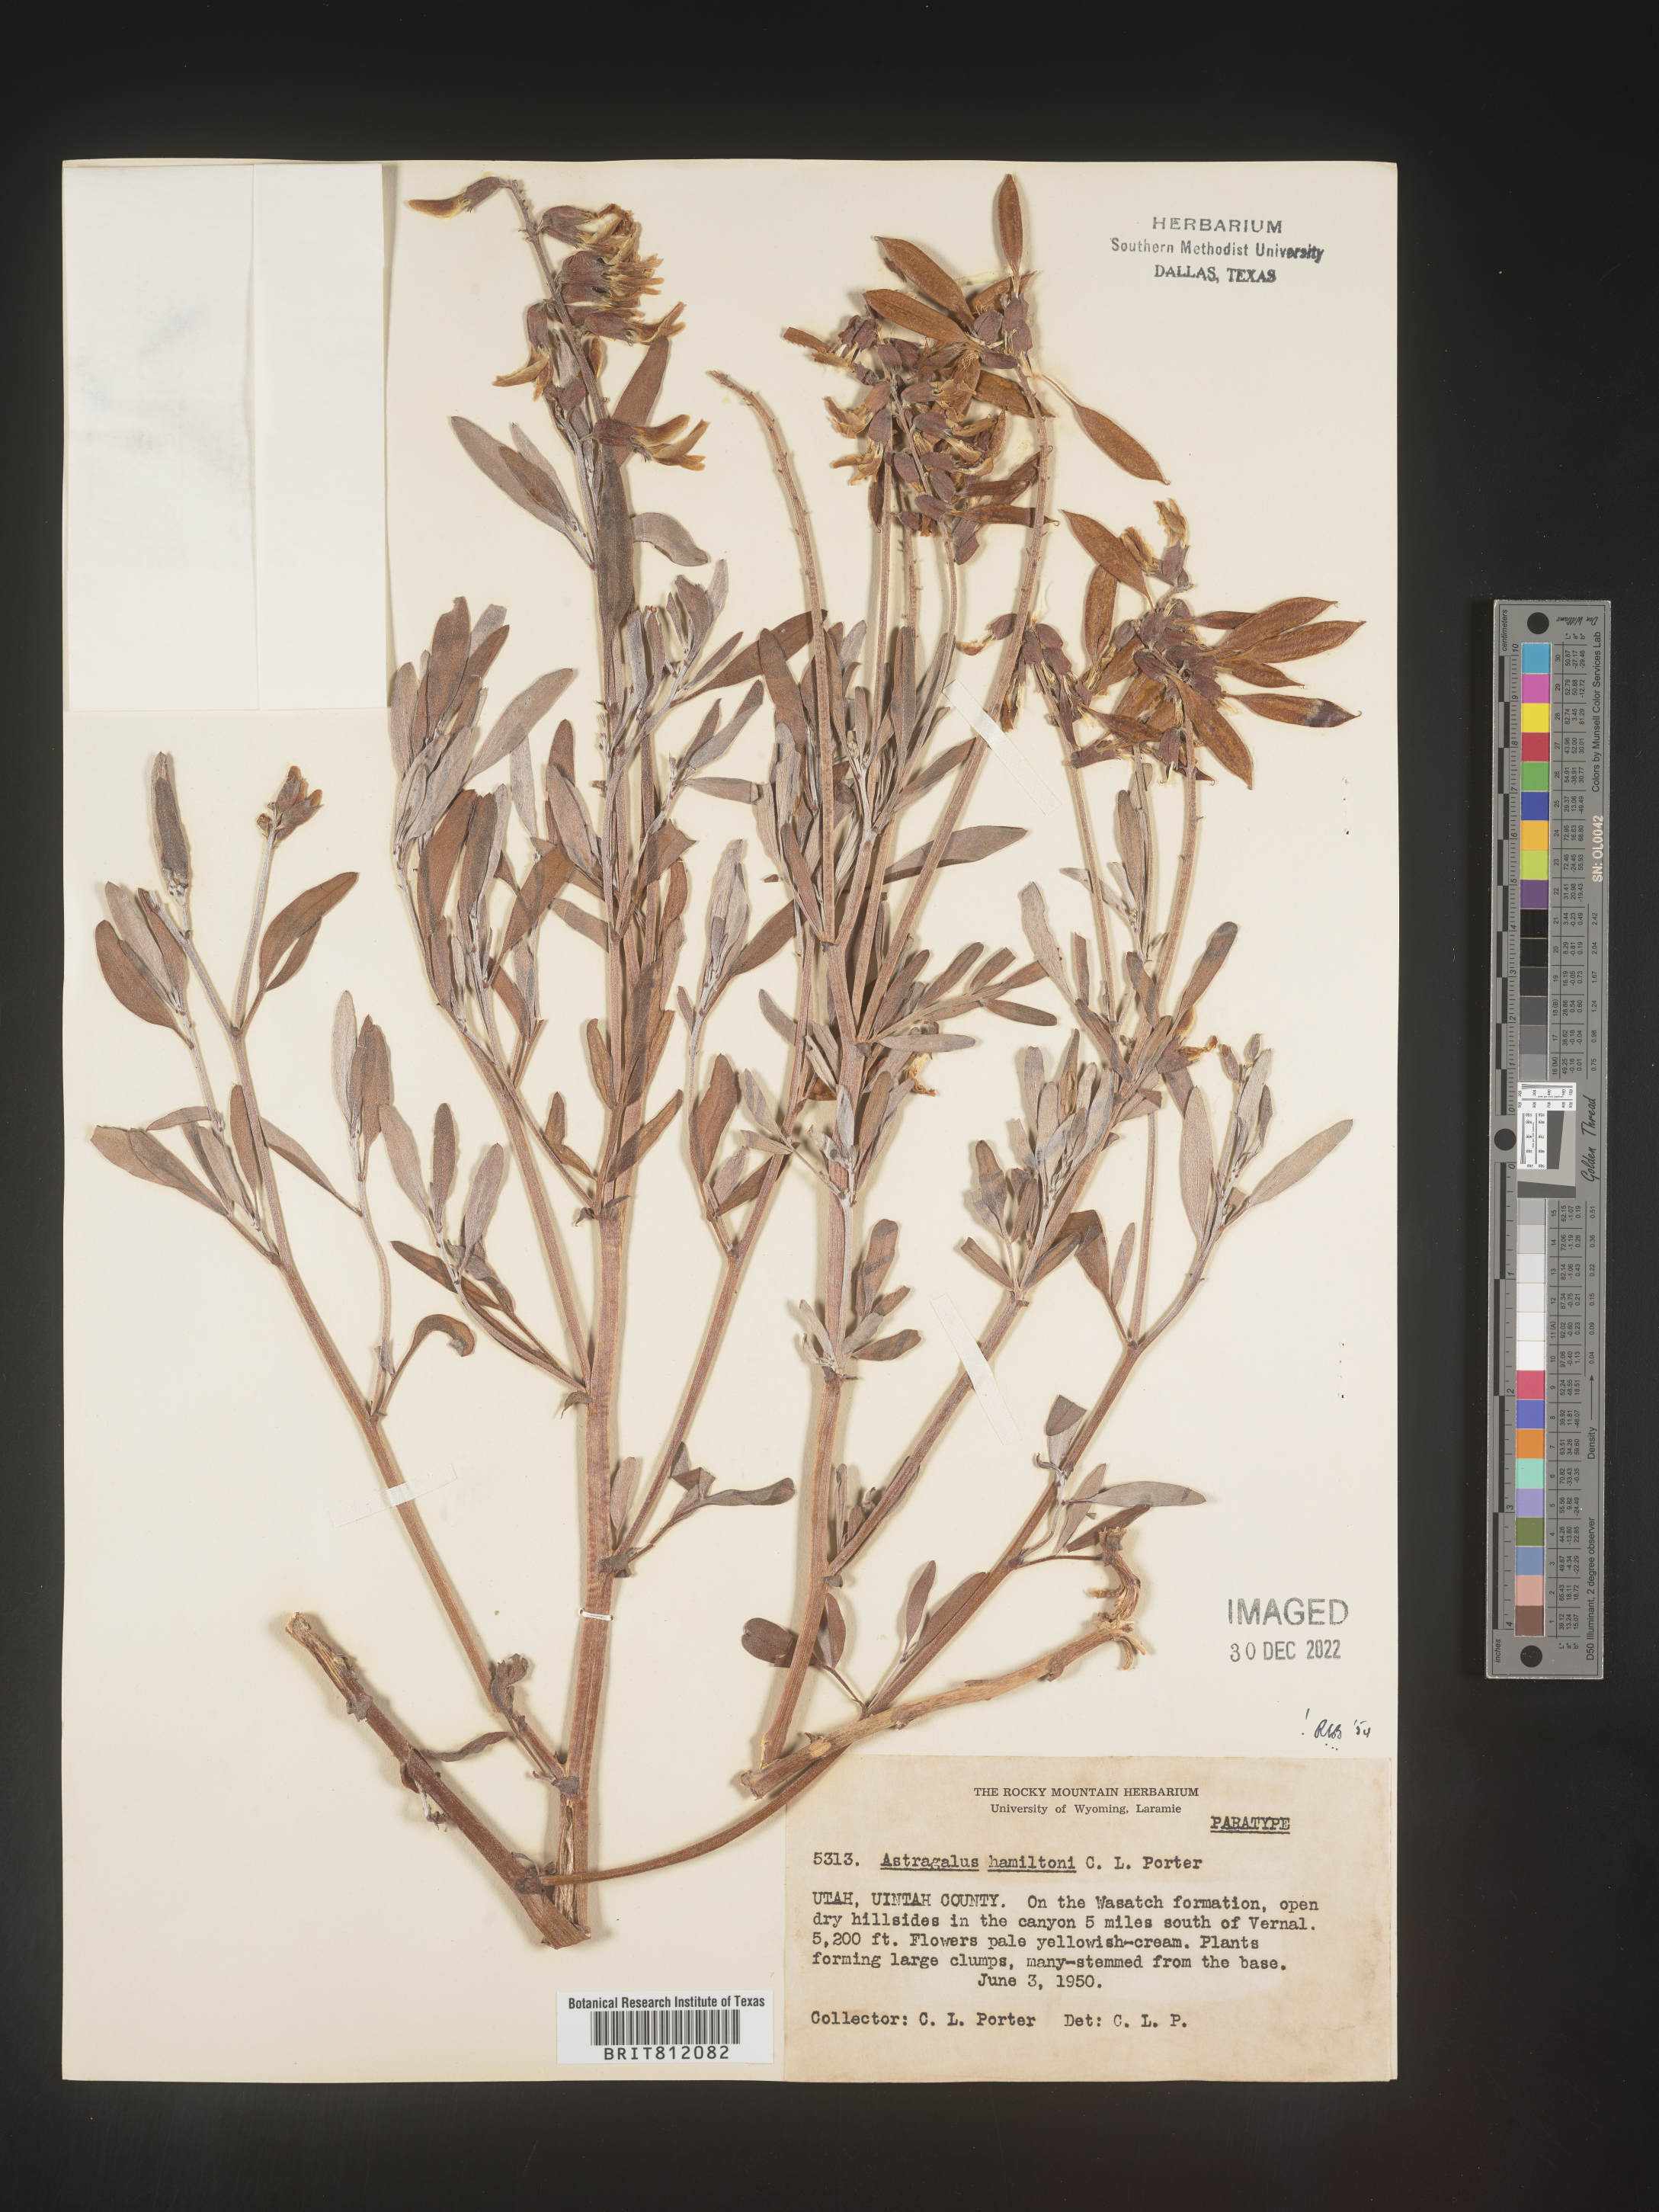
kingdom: Plantae
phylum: Tracheophyta
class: Magnoliopsida
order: Fabales
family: Fabaceae
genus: Astragalus
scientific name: Astragalus
